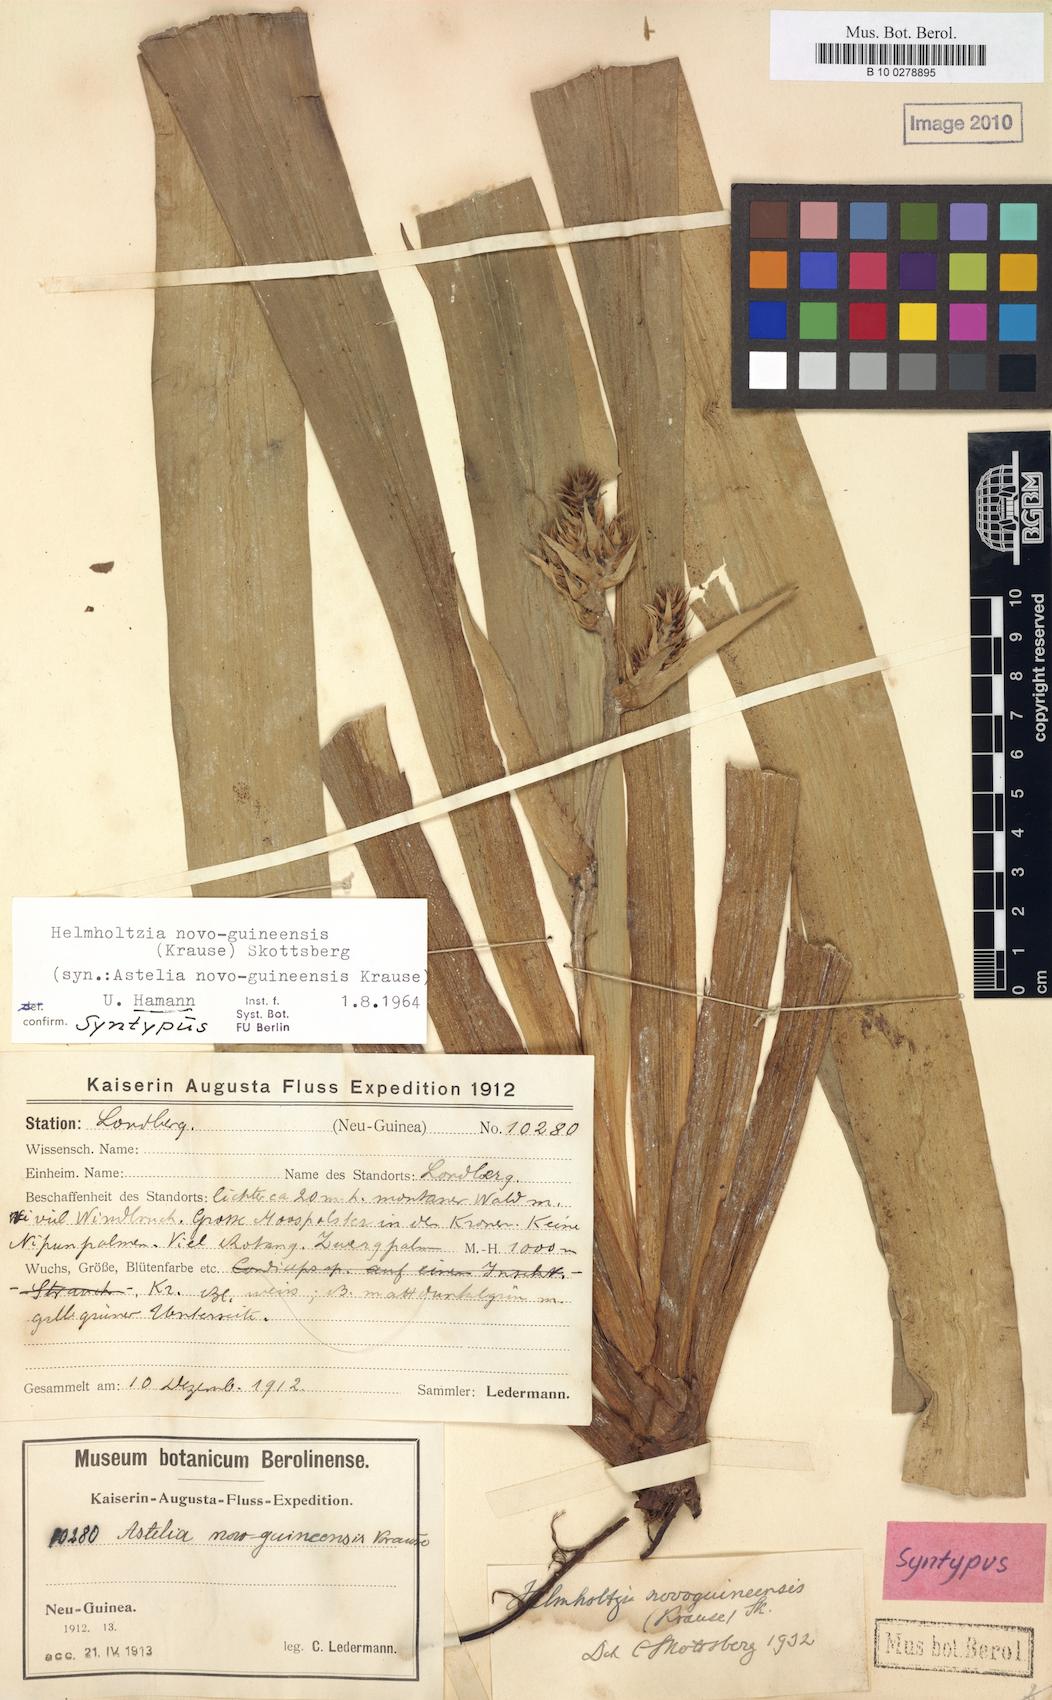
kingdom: Plantae
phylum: Tracheophyta
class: Liliopsida
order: Commelinales
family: Philydraceae
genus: Helmholtzia
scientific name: Helmholtzia novoguineensis
